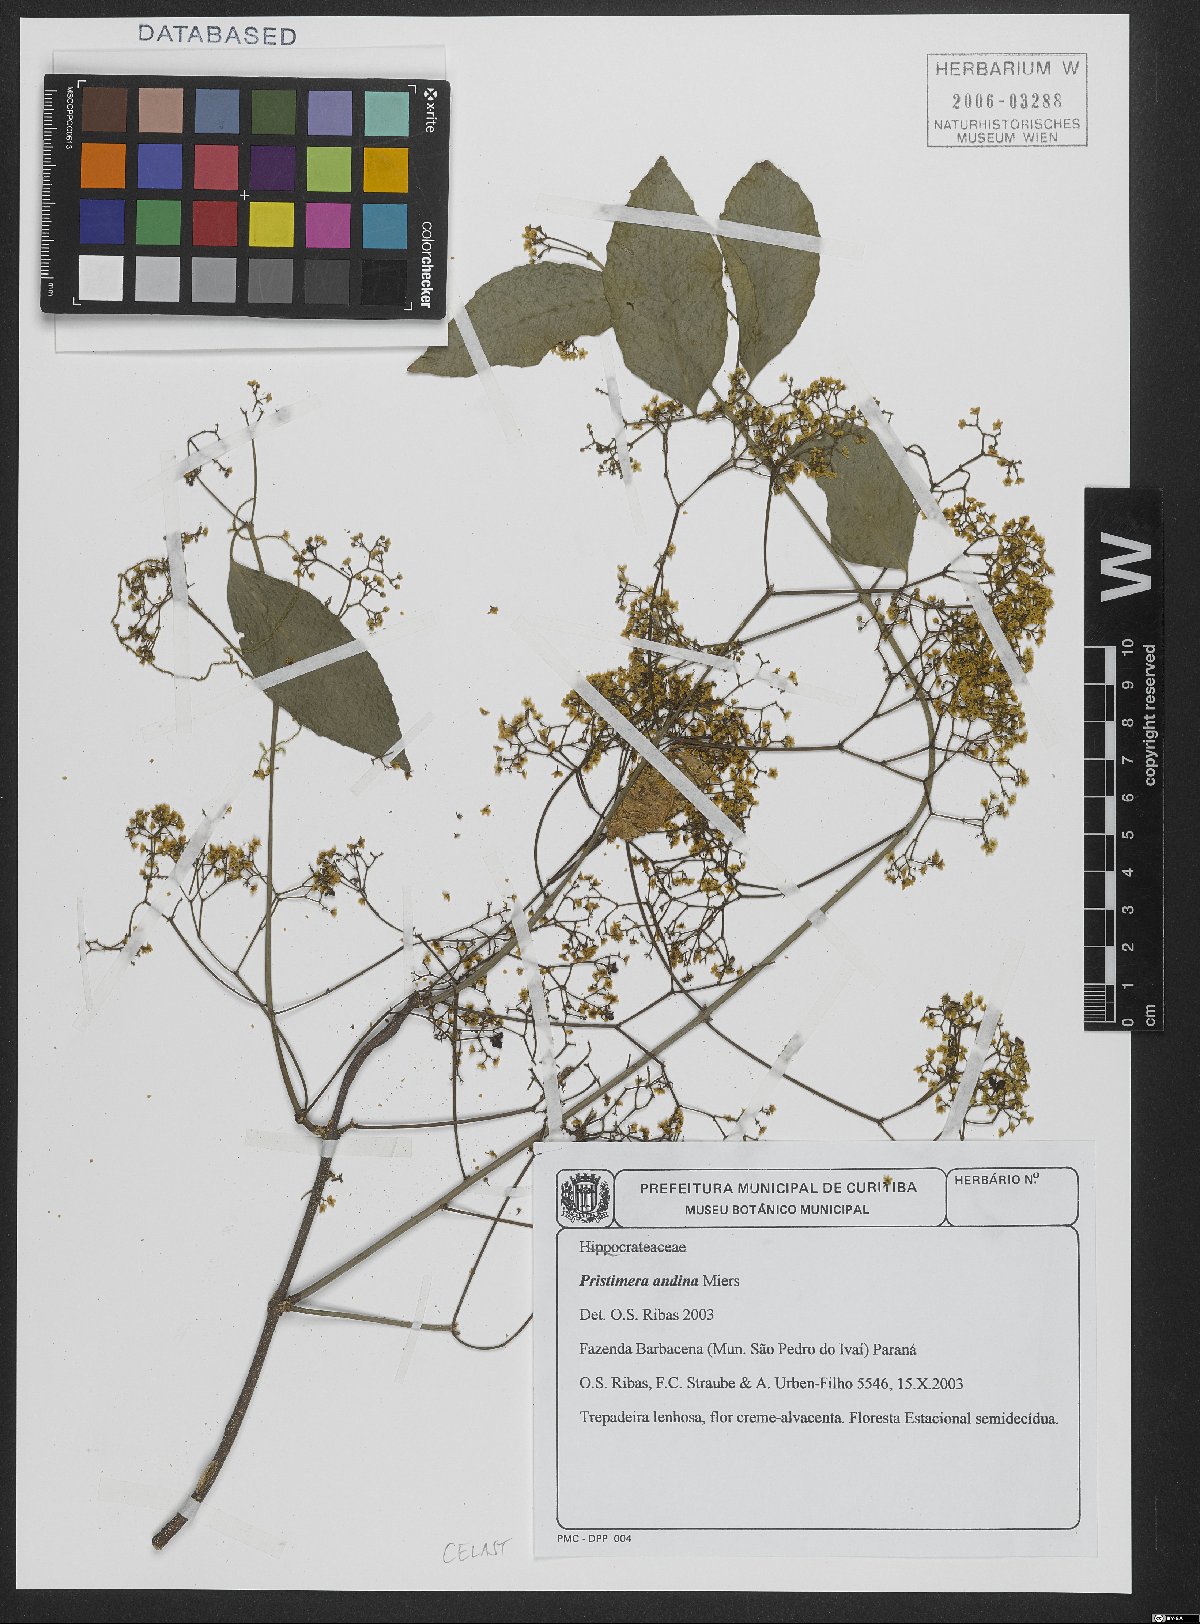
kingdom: Plantae
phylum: Tracheophyta
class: Magnoliopsida
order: Celastrales
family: Celastraceae
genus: Pristimera
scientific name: Pristimera celastroides
